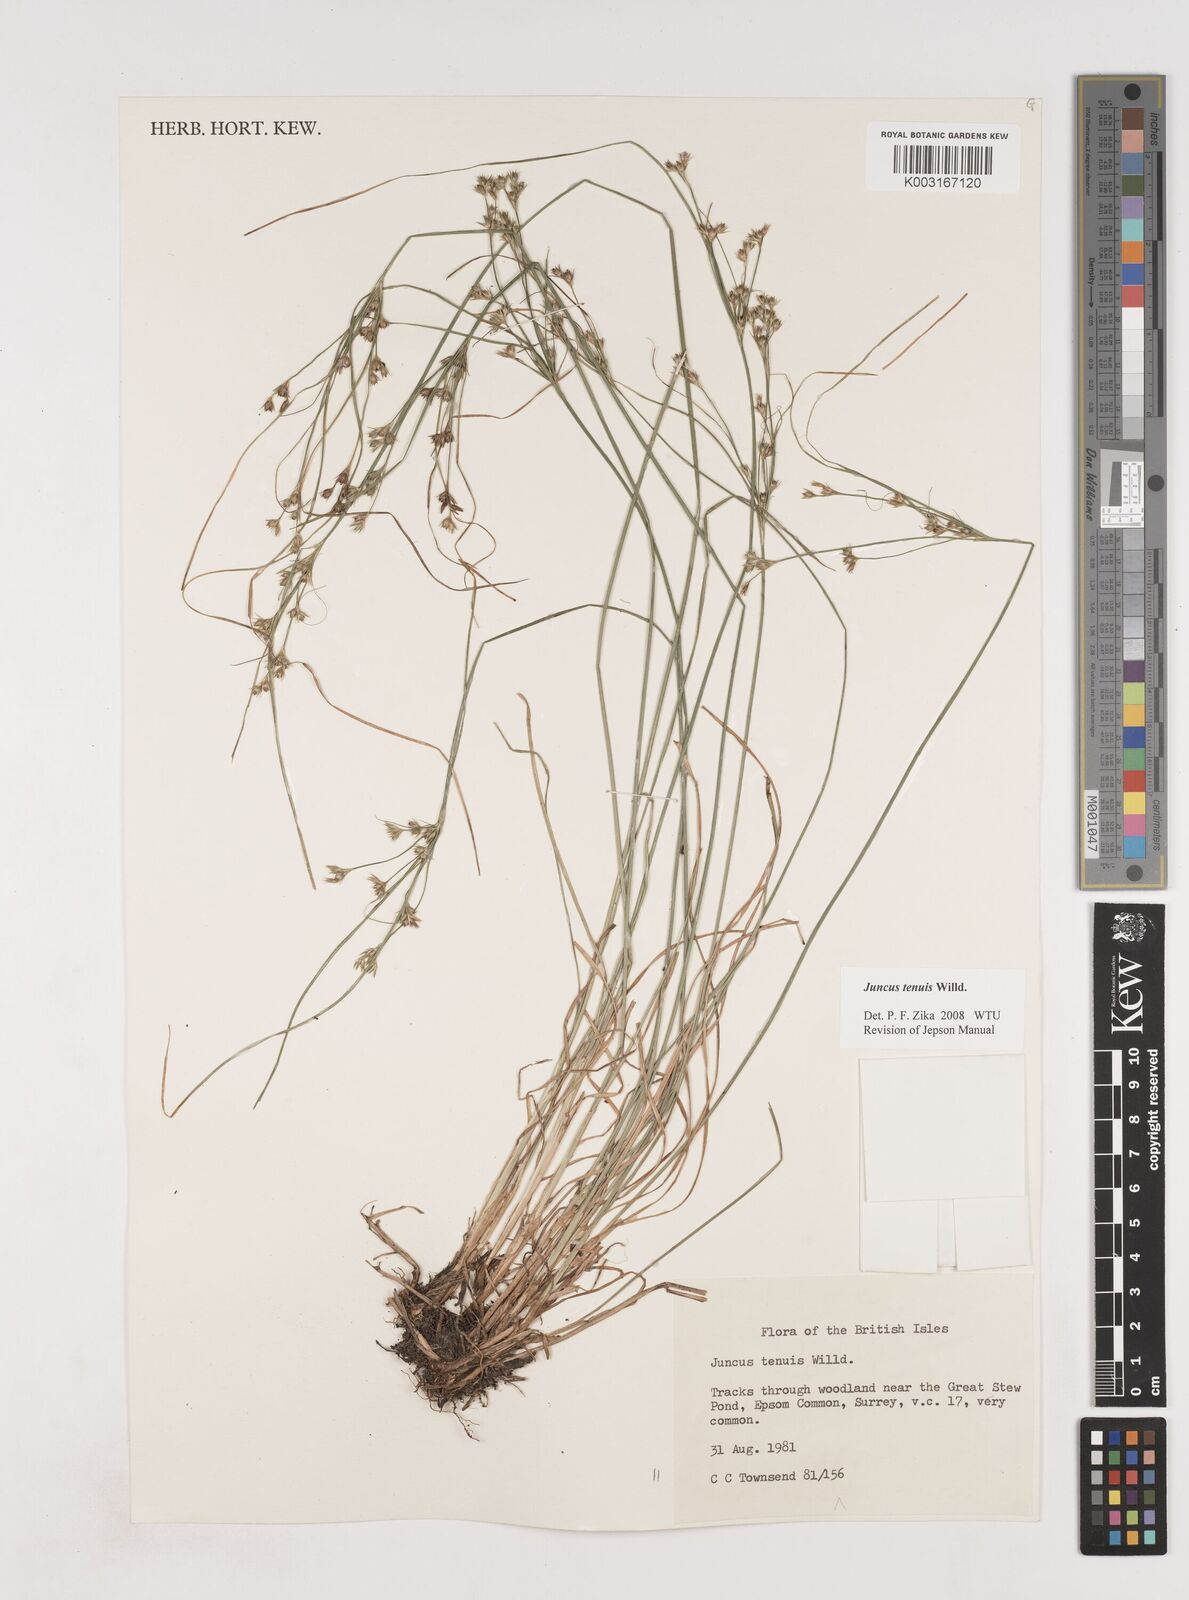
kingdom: Plantae
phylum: Tracheophyta
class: Liliopsida
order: Poales
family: Juncaceae
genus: Juncus
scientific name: Juncus tenuis
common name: Slender rush
